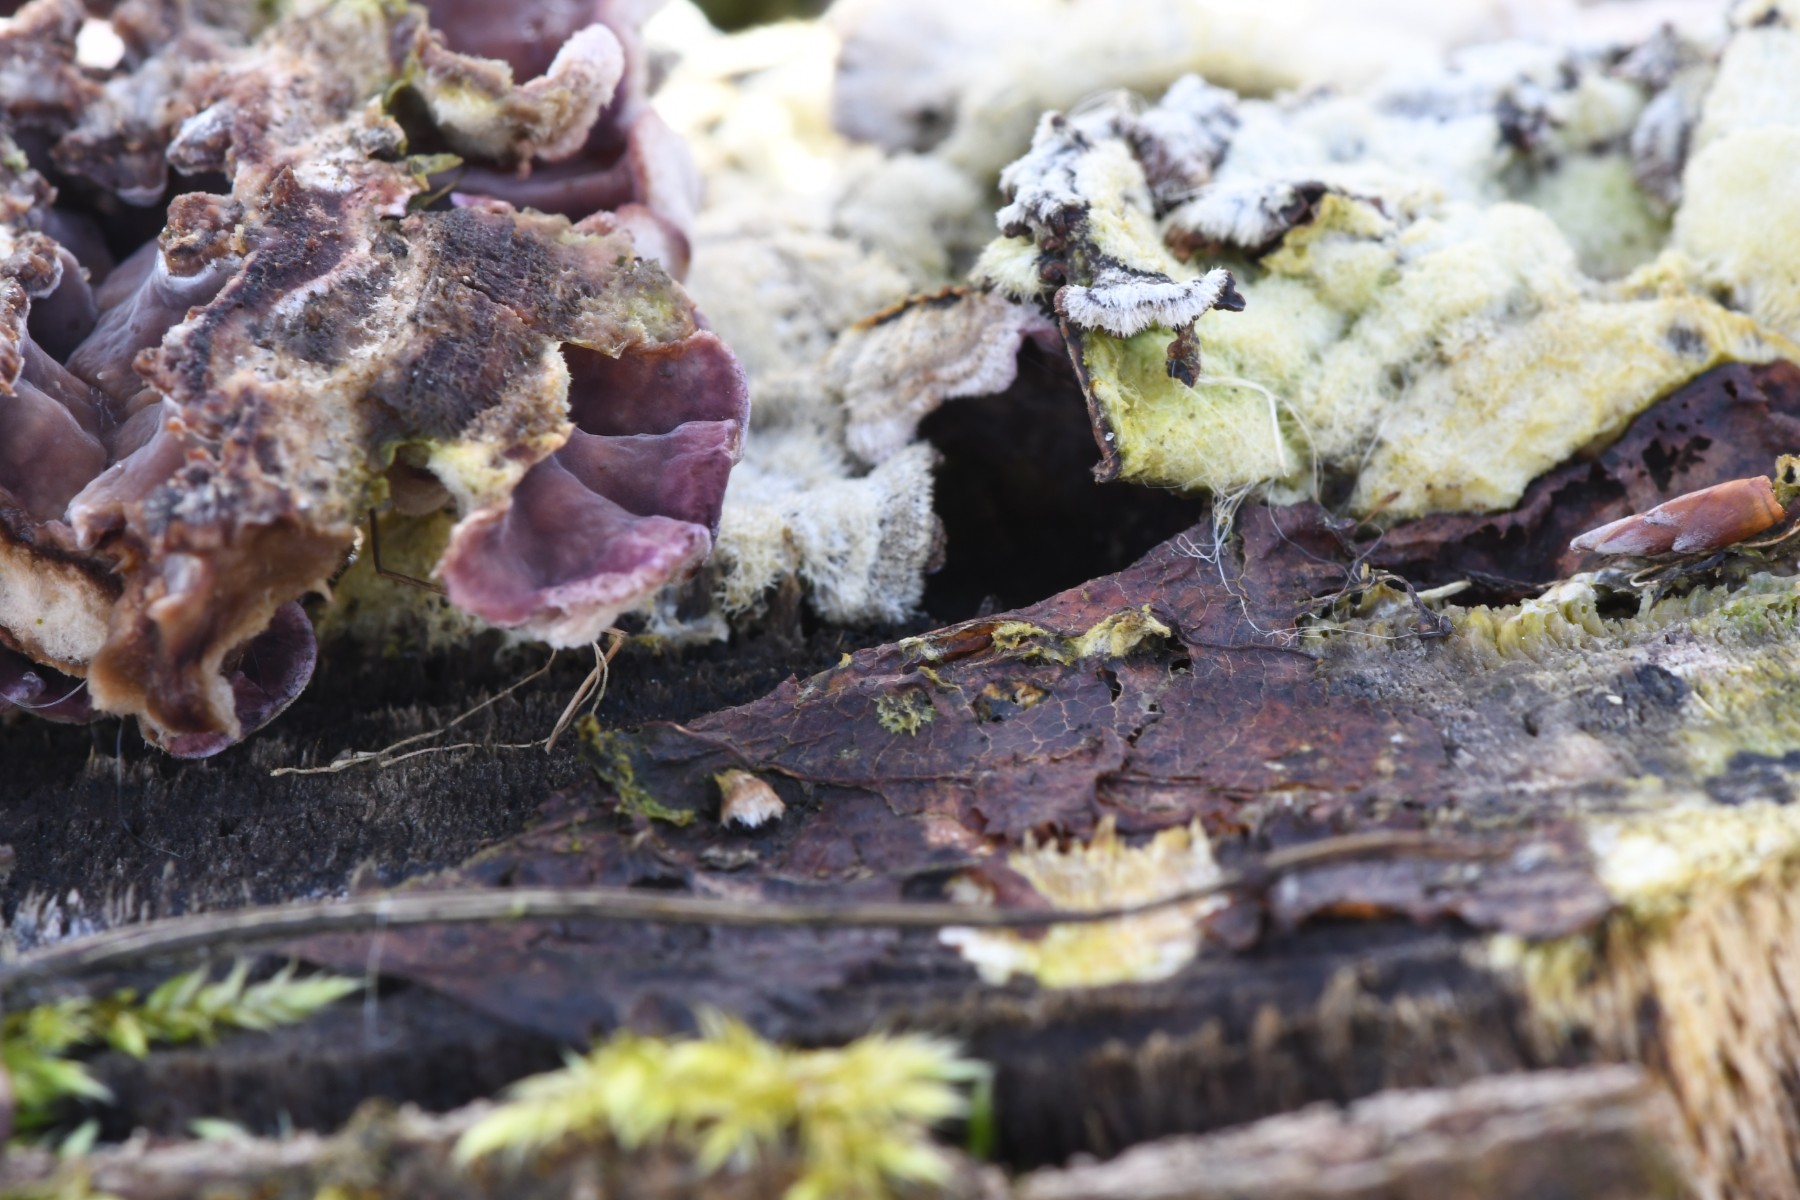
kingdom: Fungi
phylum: Basidiomycota
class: Agaricomycetes
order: Agaricales
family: Cyphellaceae
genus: Chondrostereum
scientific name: Chondrostereum purpureum
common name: purpurlædersvamp
